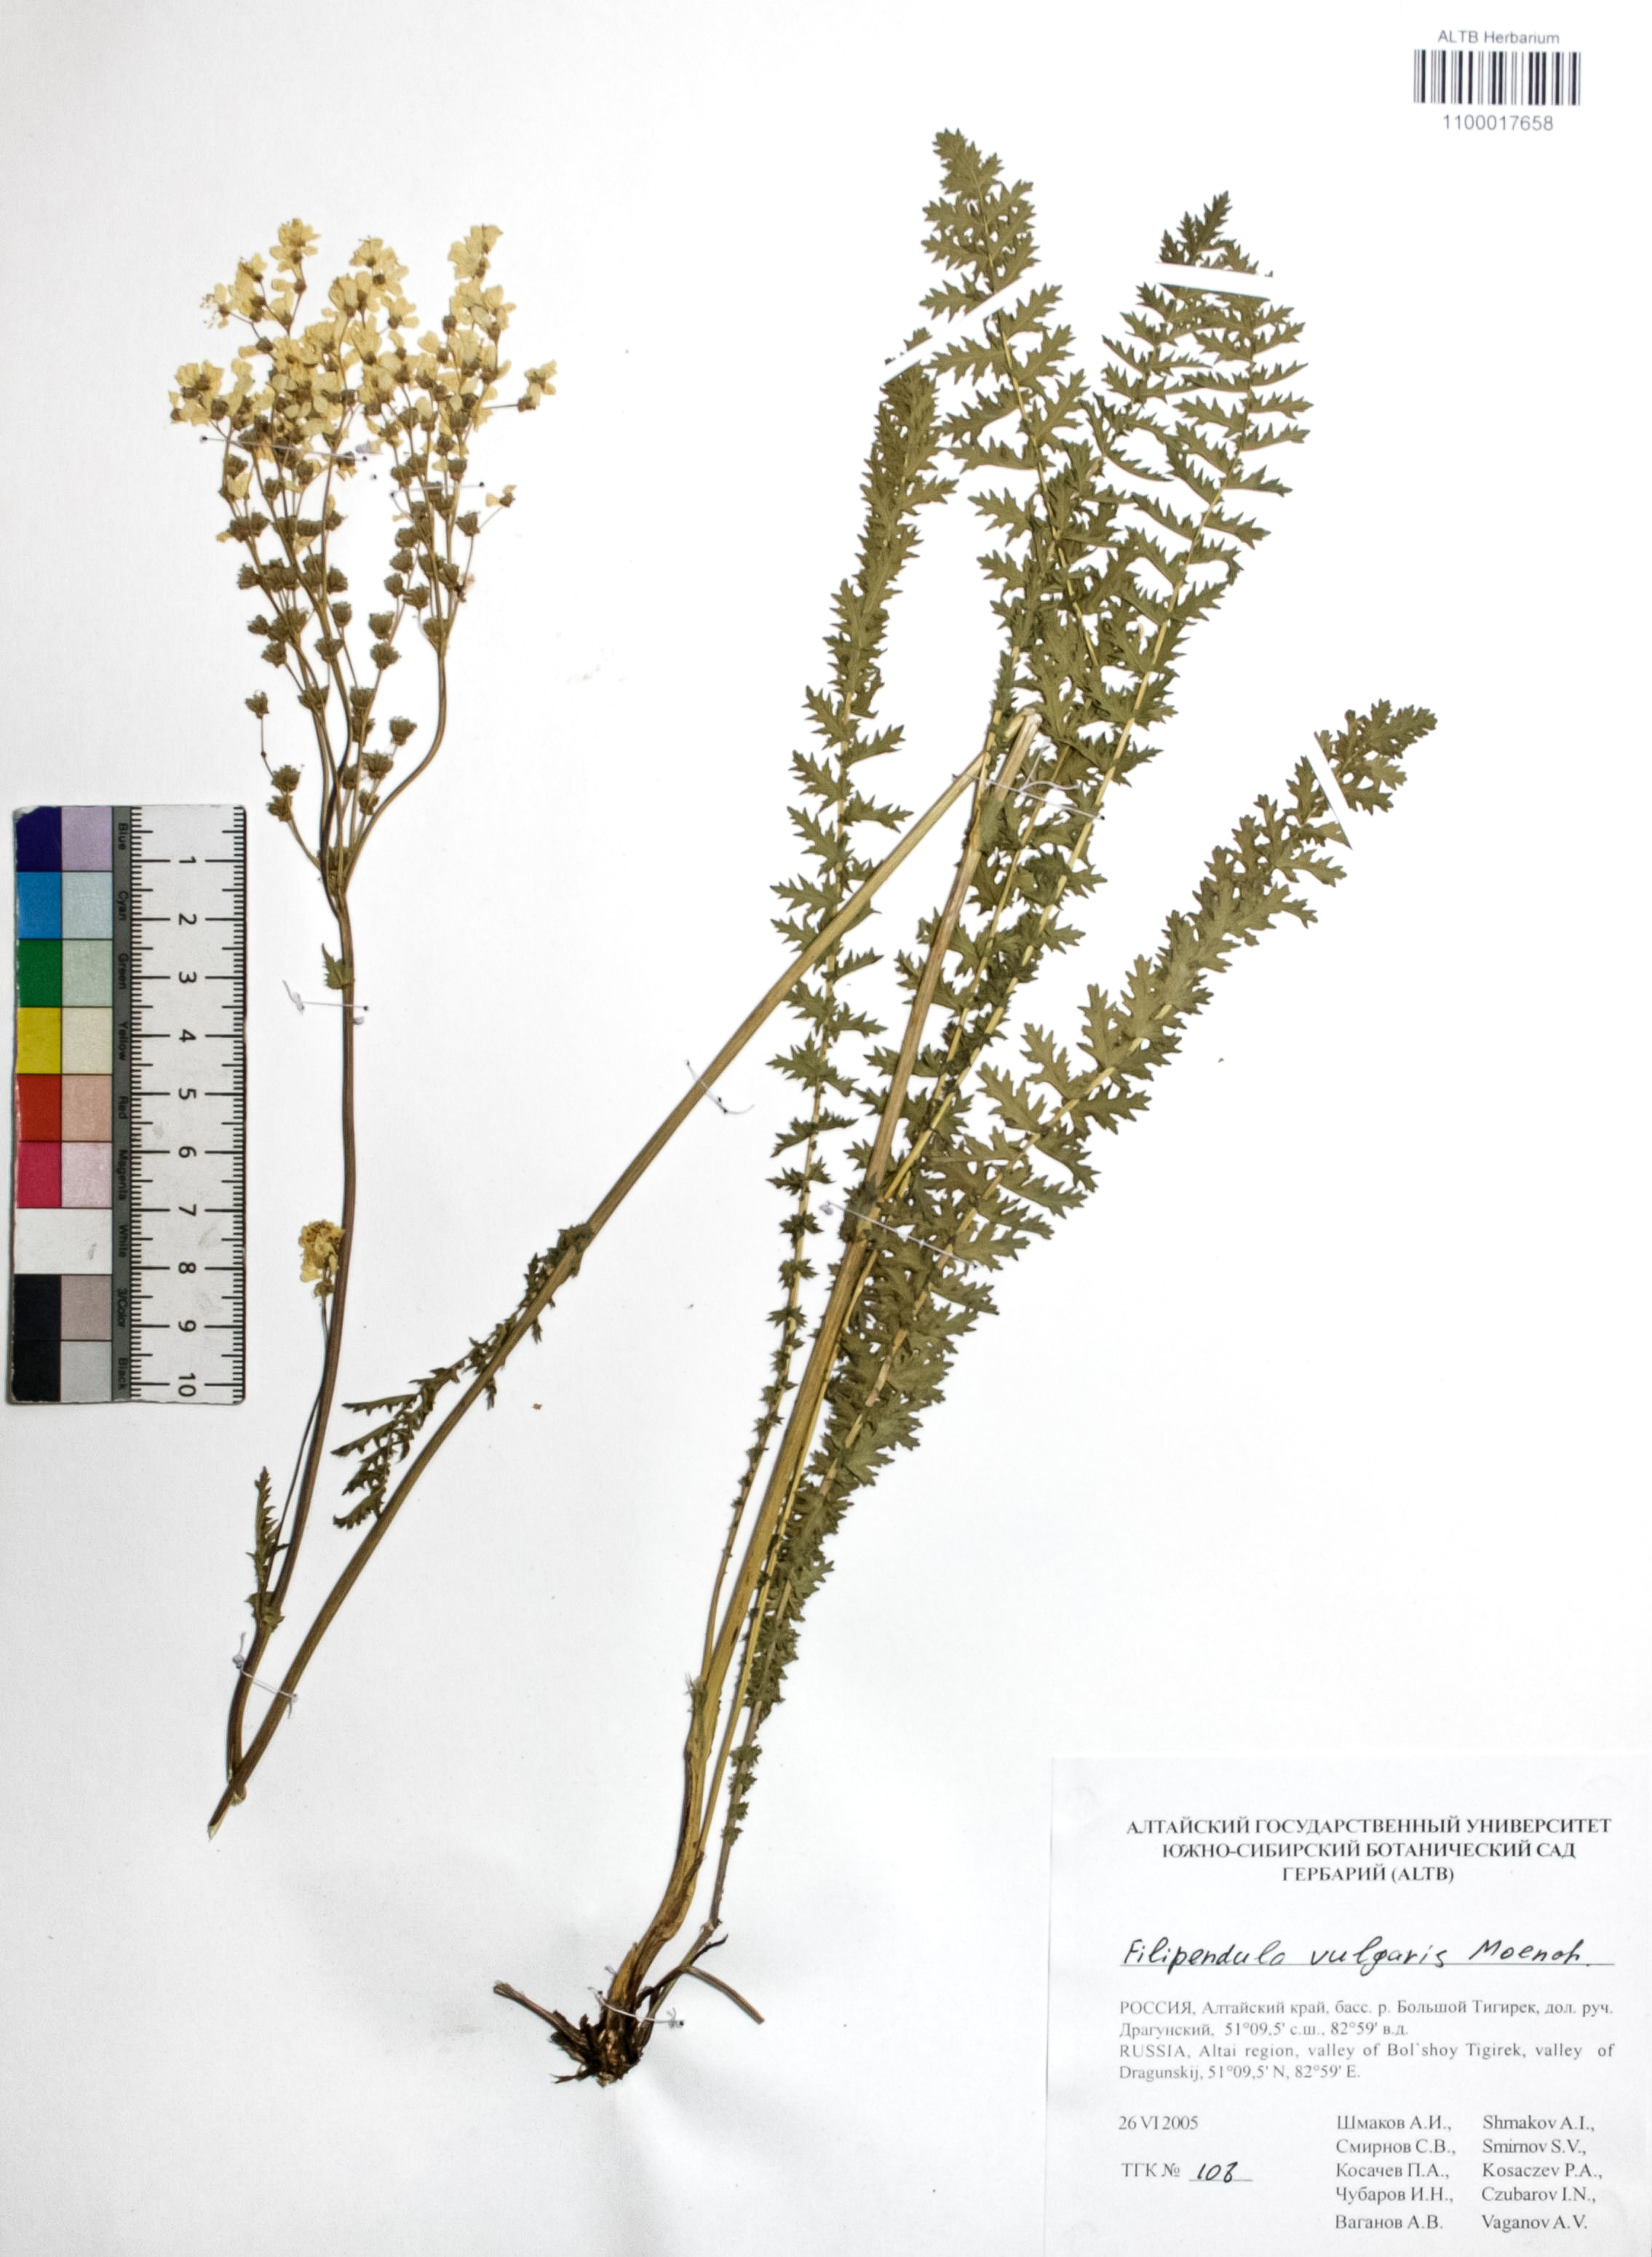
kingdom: Plantae
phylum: Tracheophyta
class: Magnoliopsida
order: Rosales
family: Rosaceae
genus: Filipendula
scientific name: Filipendula vulgaris
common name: Dropwort
